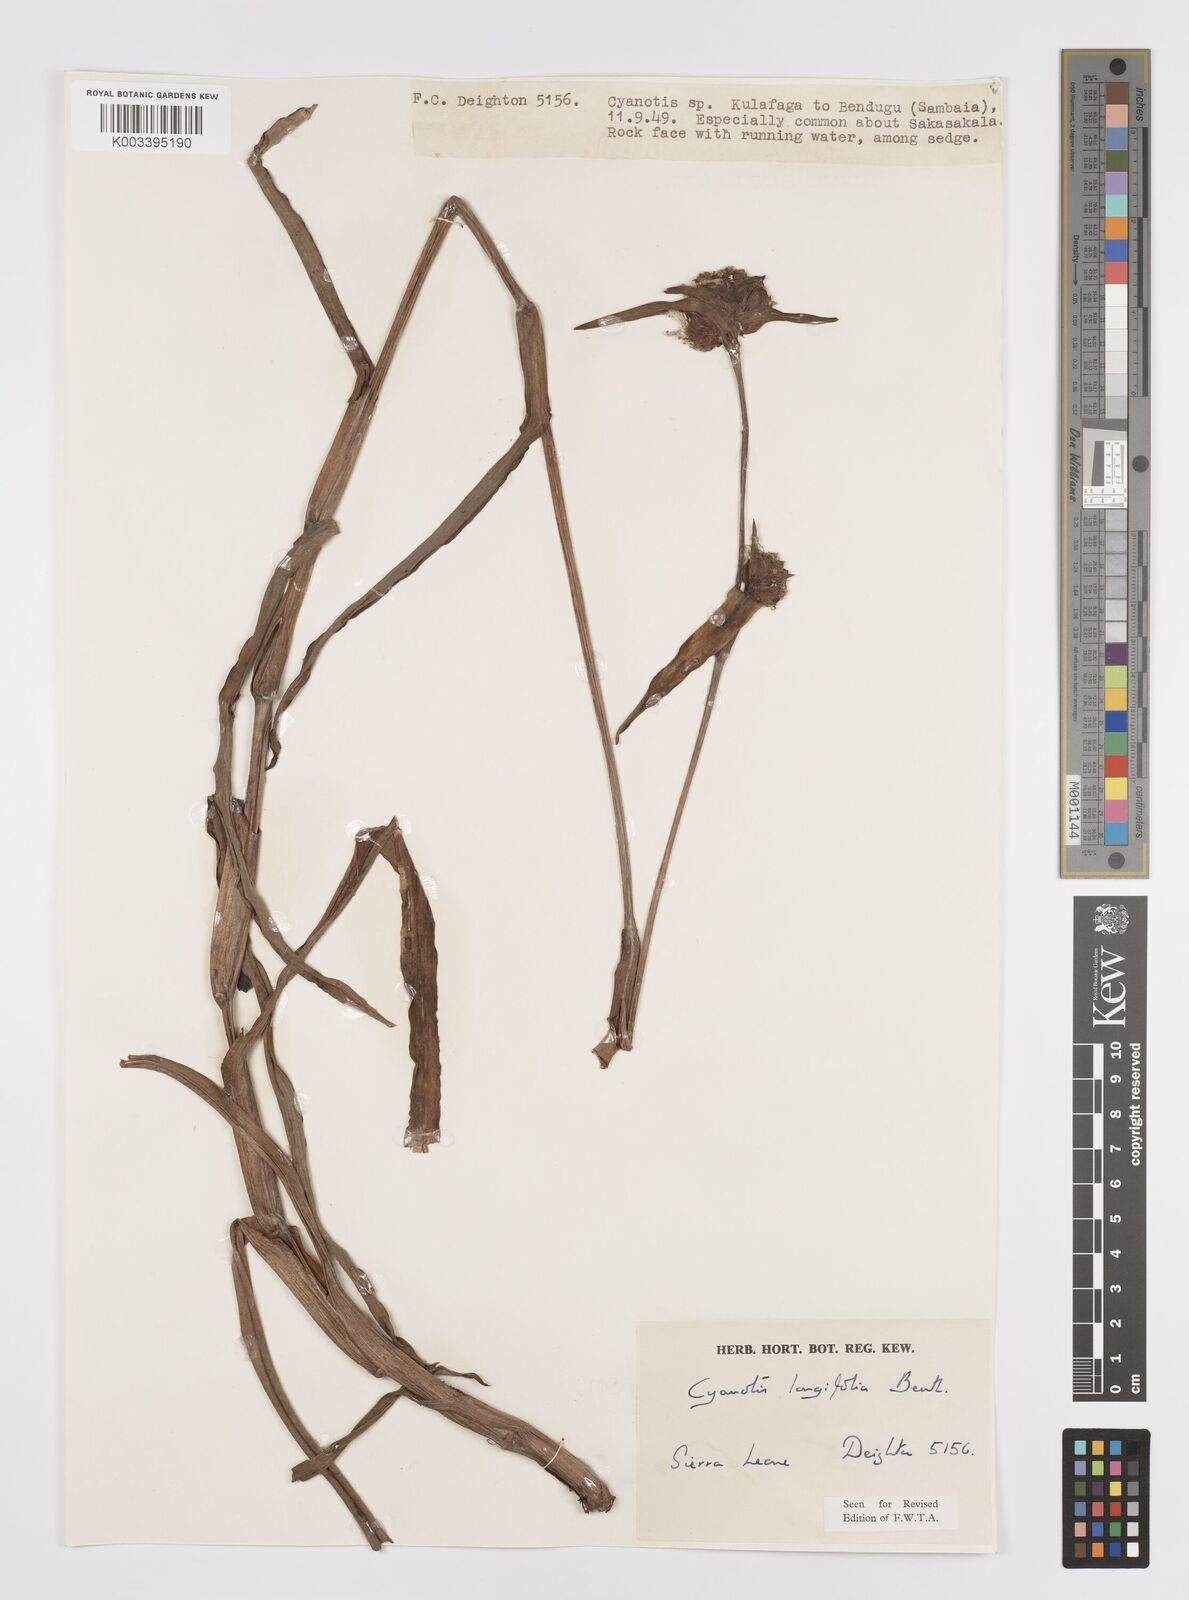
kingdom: Plantae
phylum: Tracheophyta
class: Liliopsida
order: Commelinales
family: Commelinaceae
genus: Cyanotis
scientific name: Cyanotis
